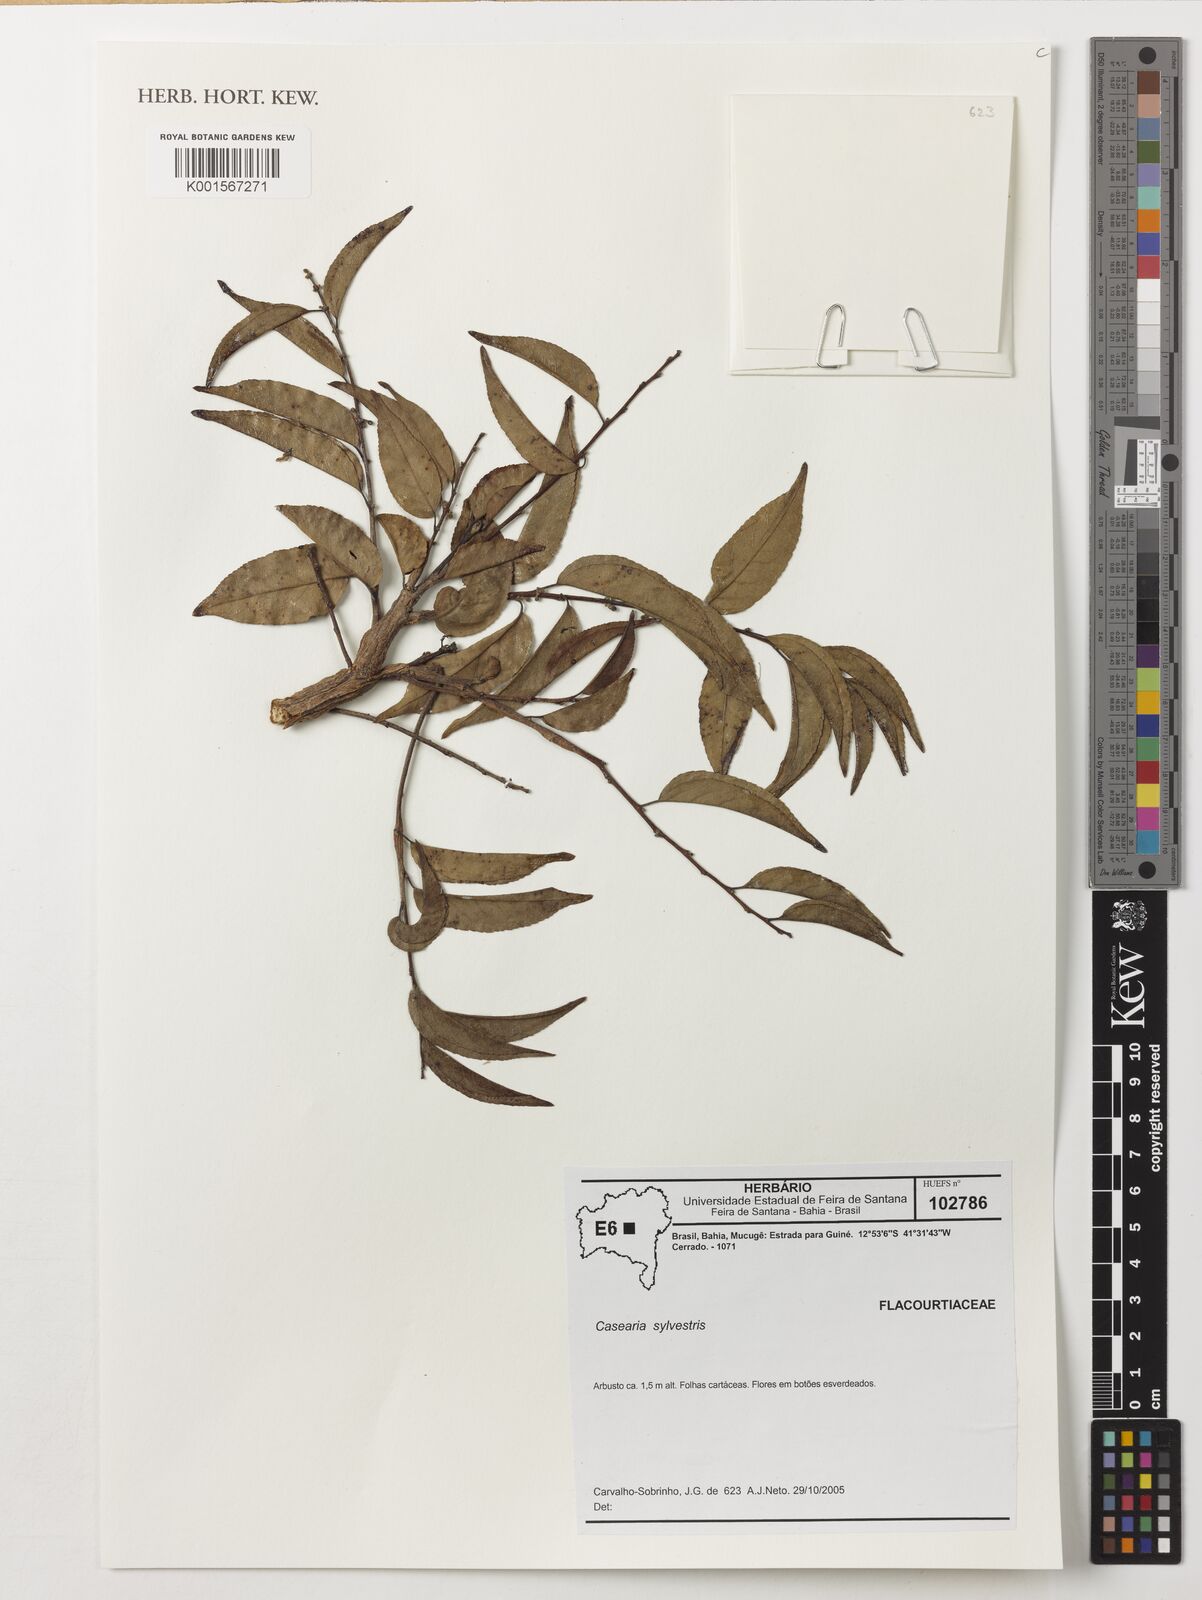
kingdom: Plantae
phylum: Tracheophyta
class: Magnoliopsida
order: Malpighiales
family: Salicaceae
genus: Casearia
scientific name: Casearia sylvestris
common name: Wild sage
